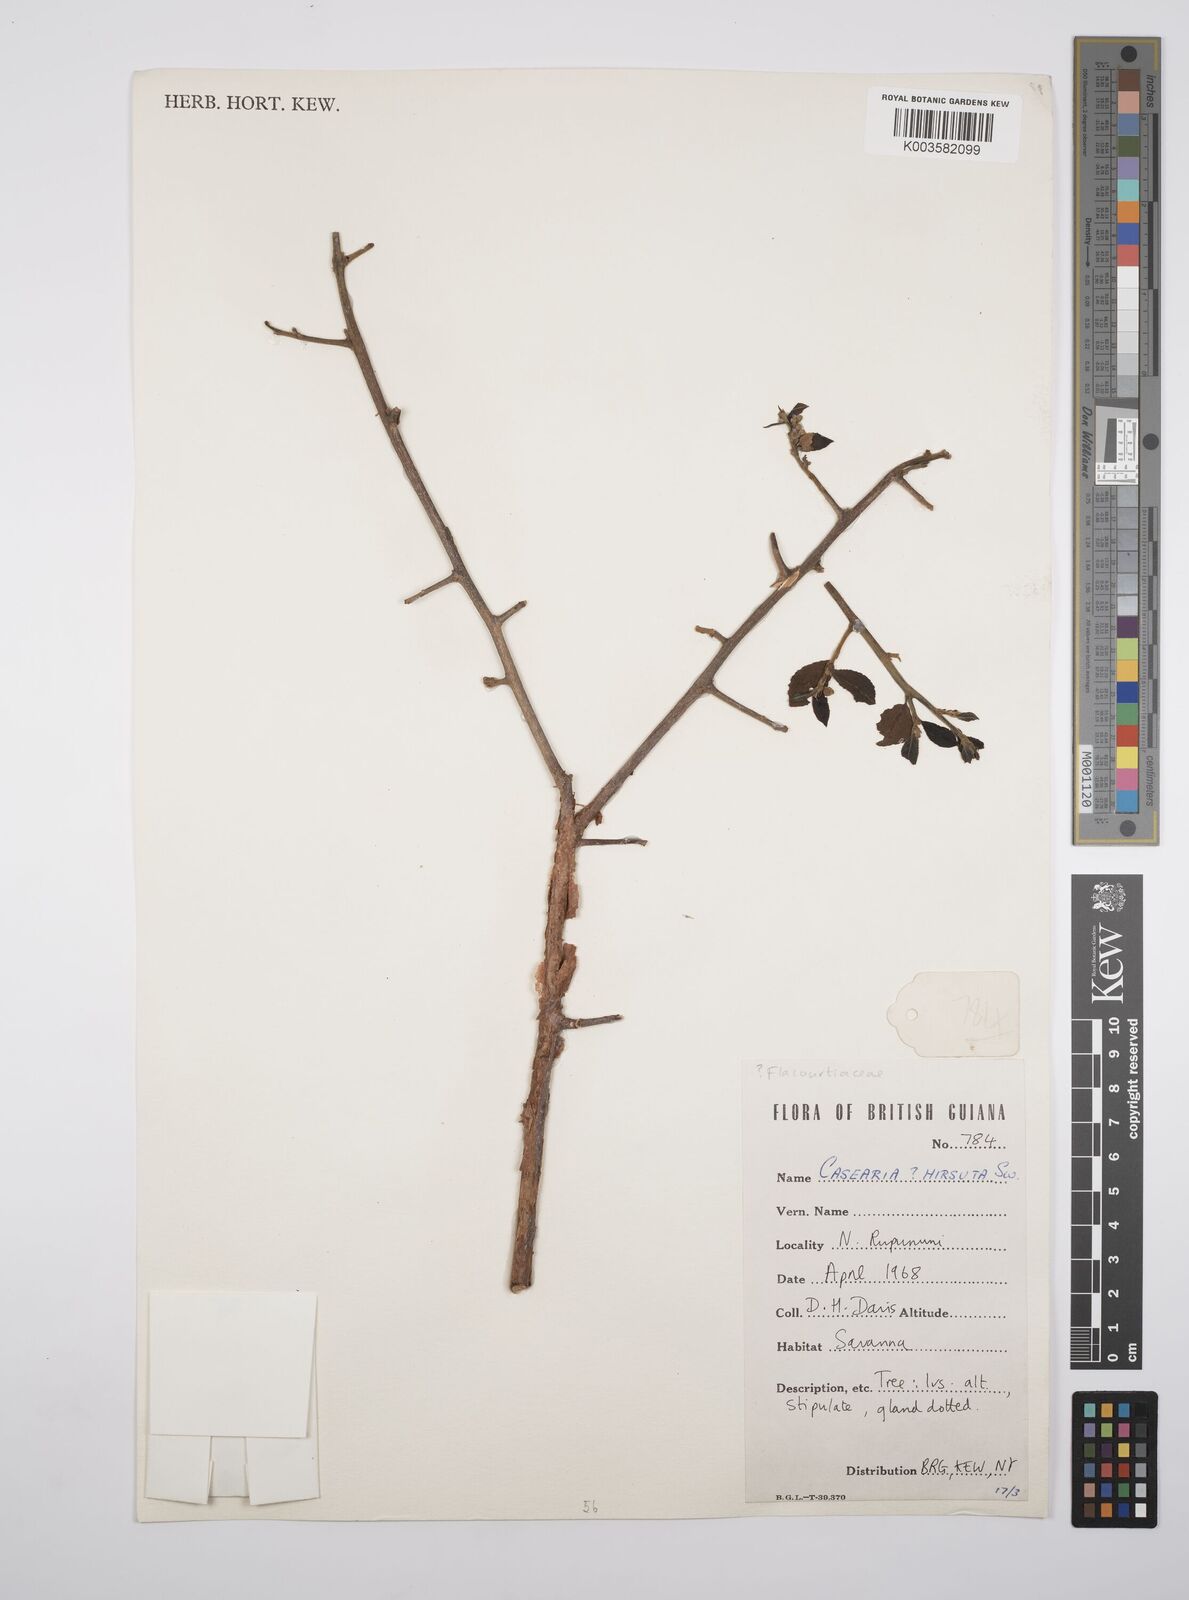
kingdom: Plantae
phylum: Tracheophyta
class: Magnoliopsida
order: Malpighiales
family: Salicaceae
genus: Casearia
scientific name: Casearia hirsuta
